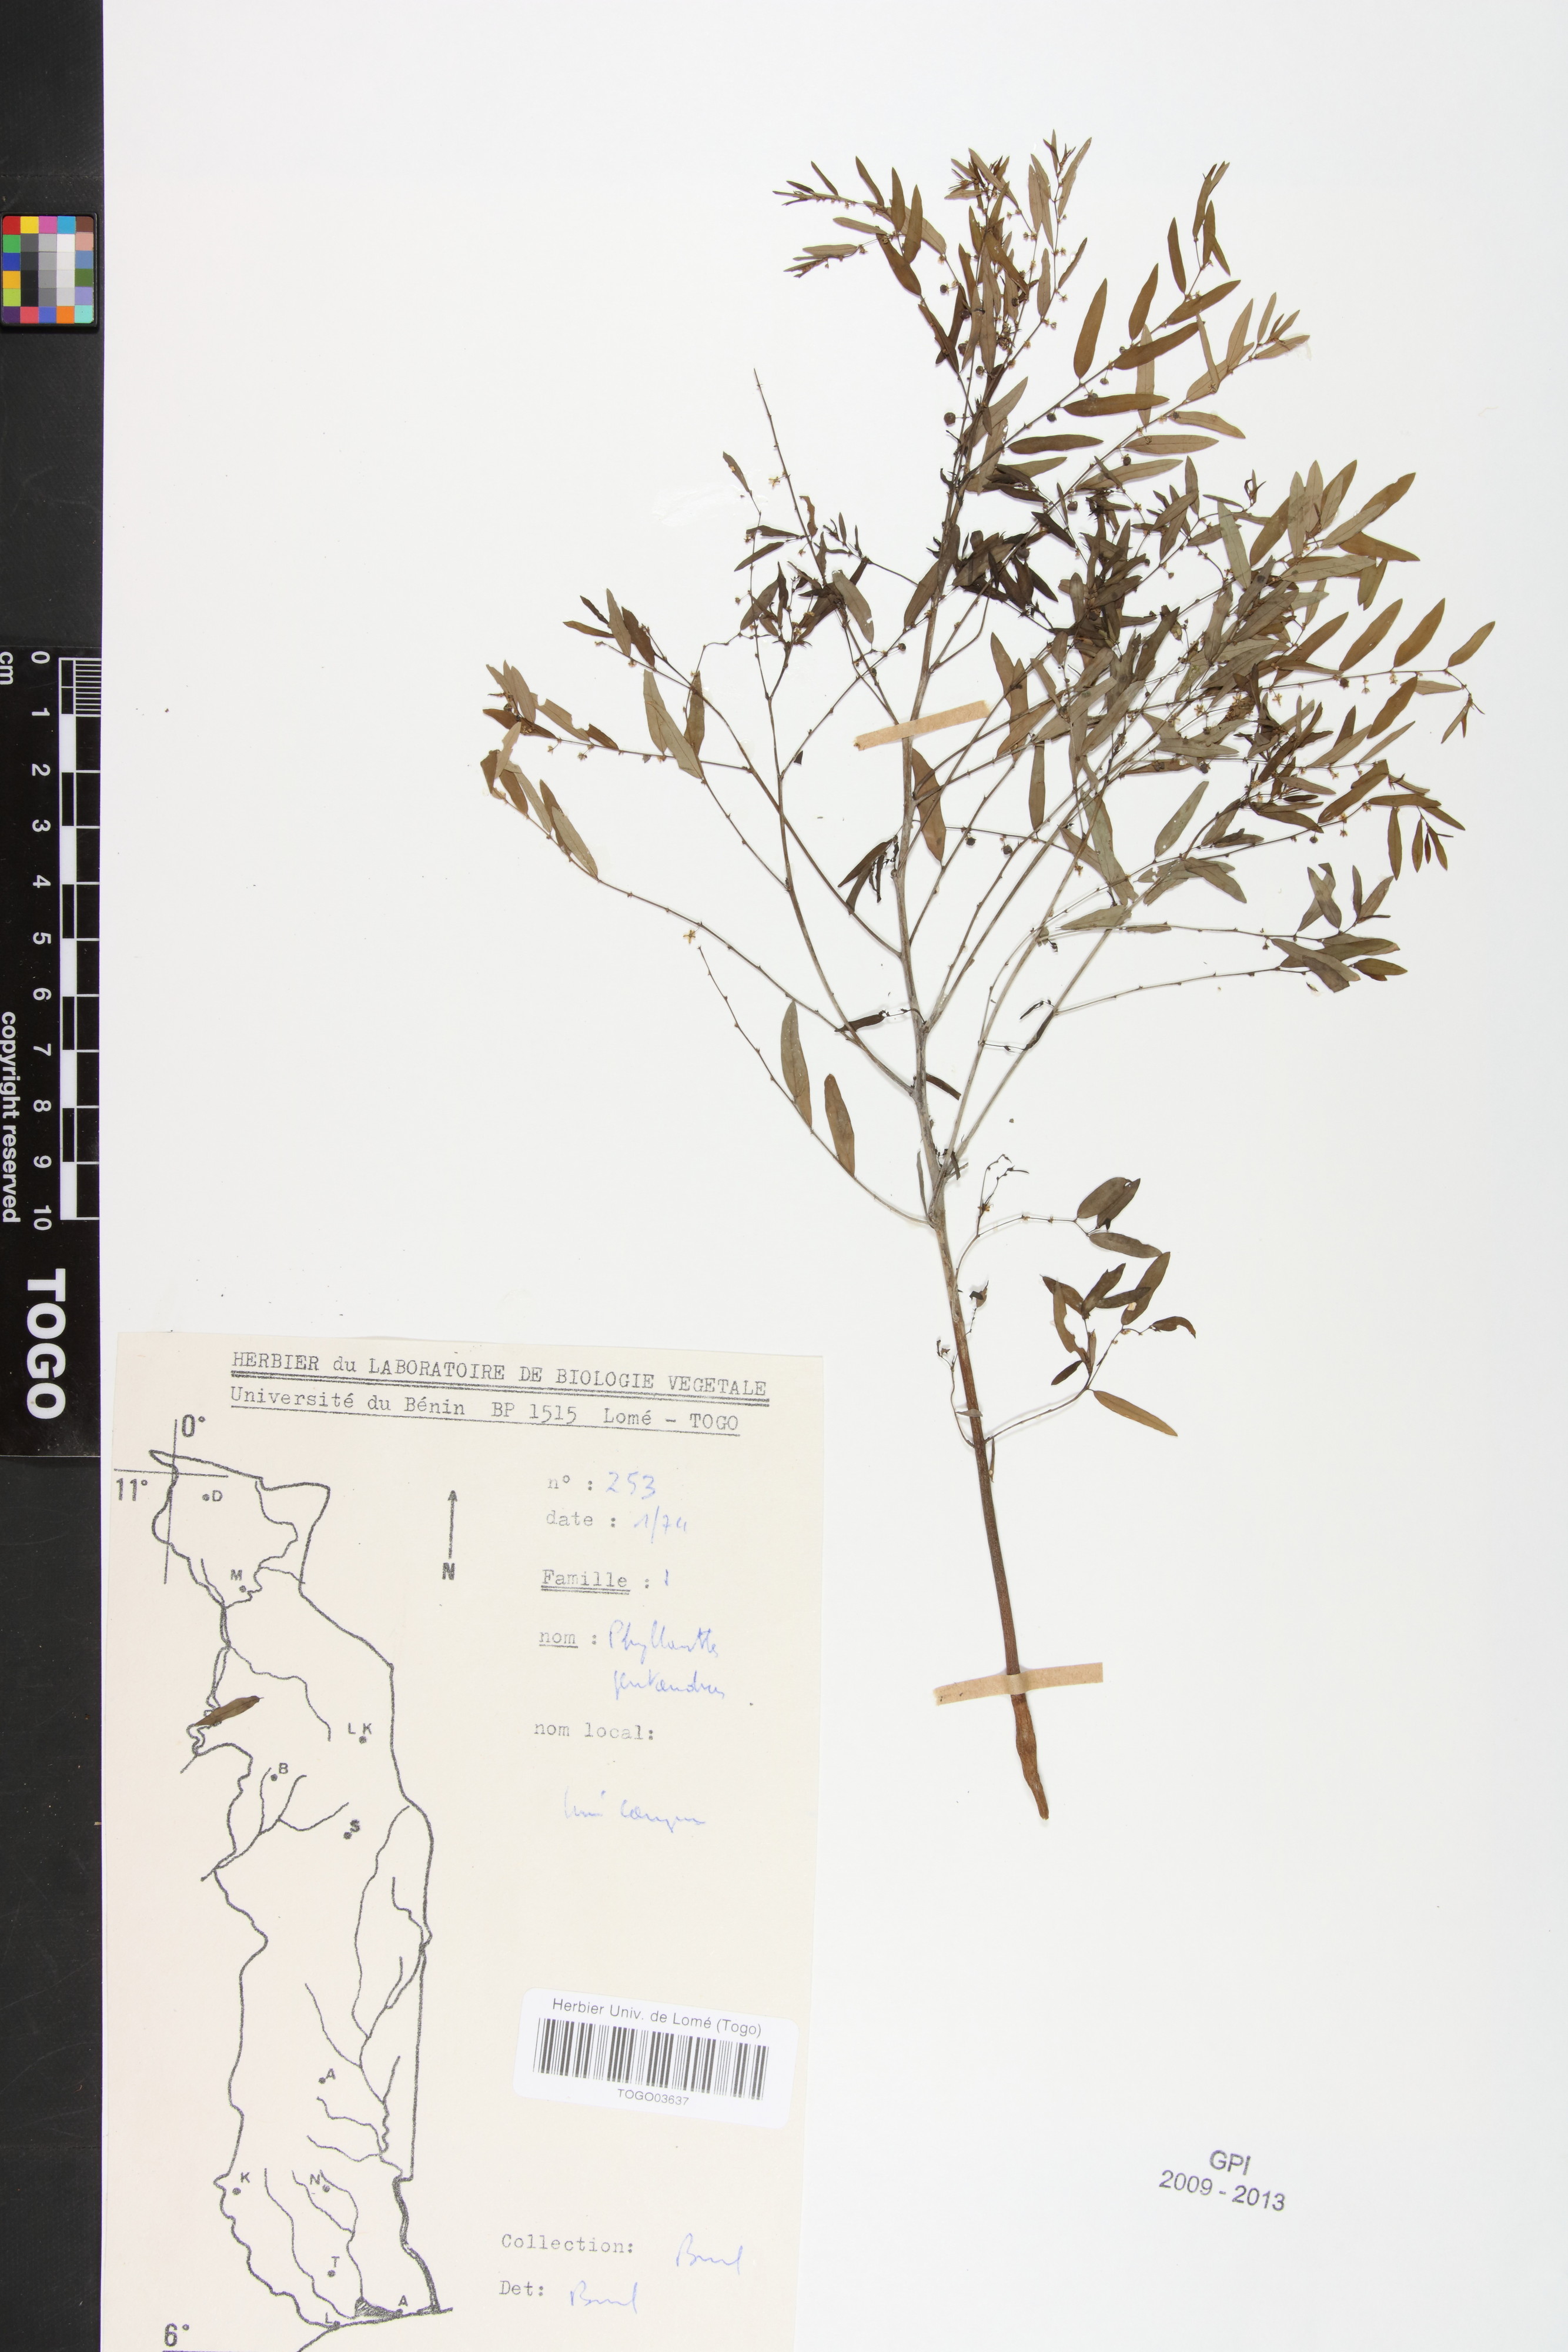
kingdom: Plantae
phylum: Tracheophyta
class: Magnoliopsida
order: Malpighiales
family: Phyllanthaceae
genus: Phyllanthus
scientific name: Phyllanthus pentandrus
